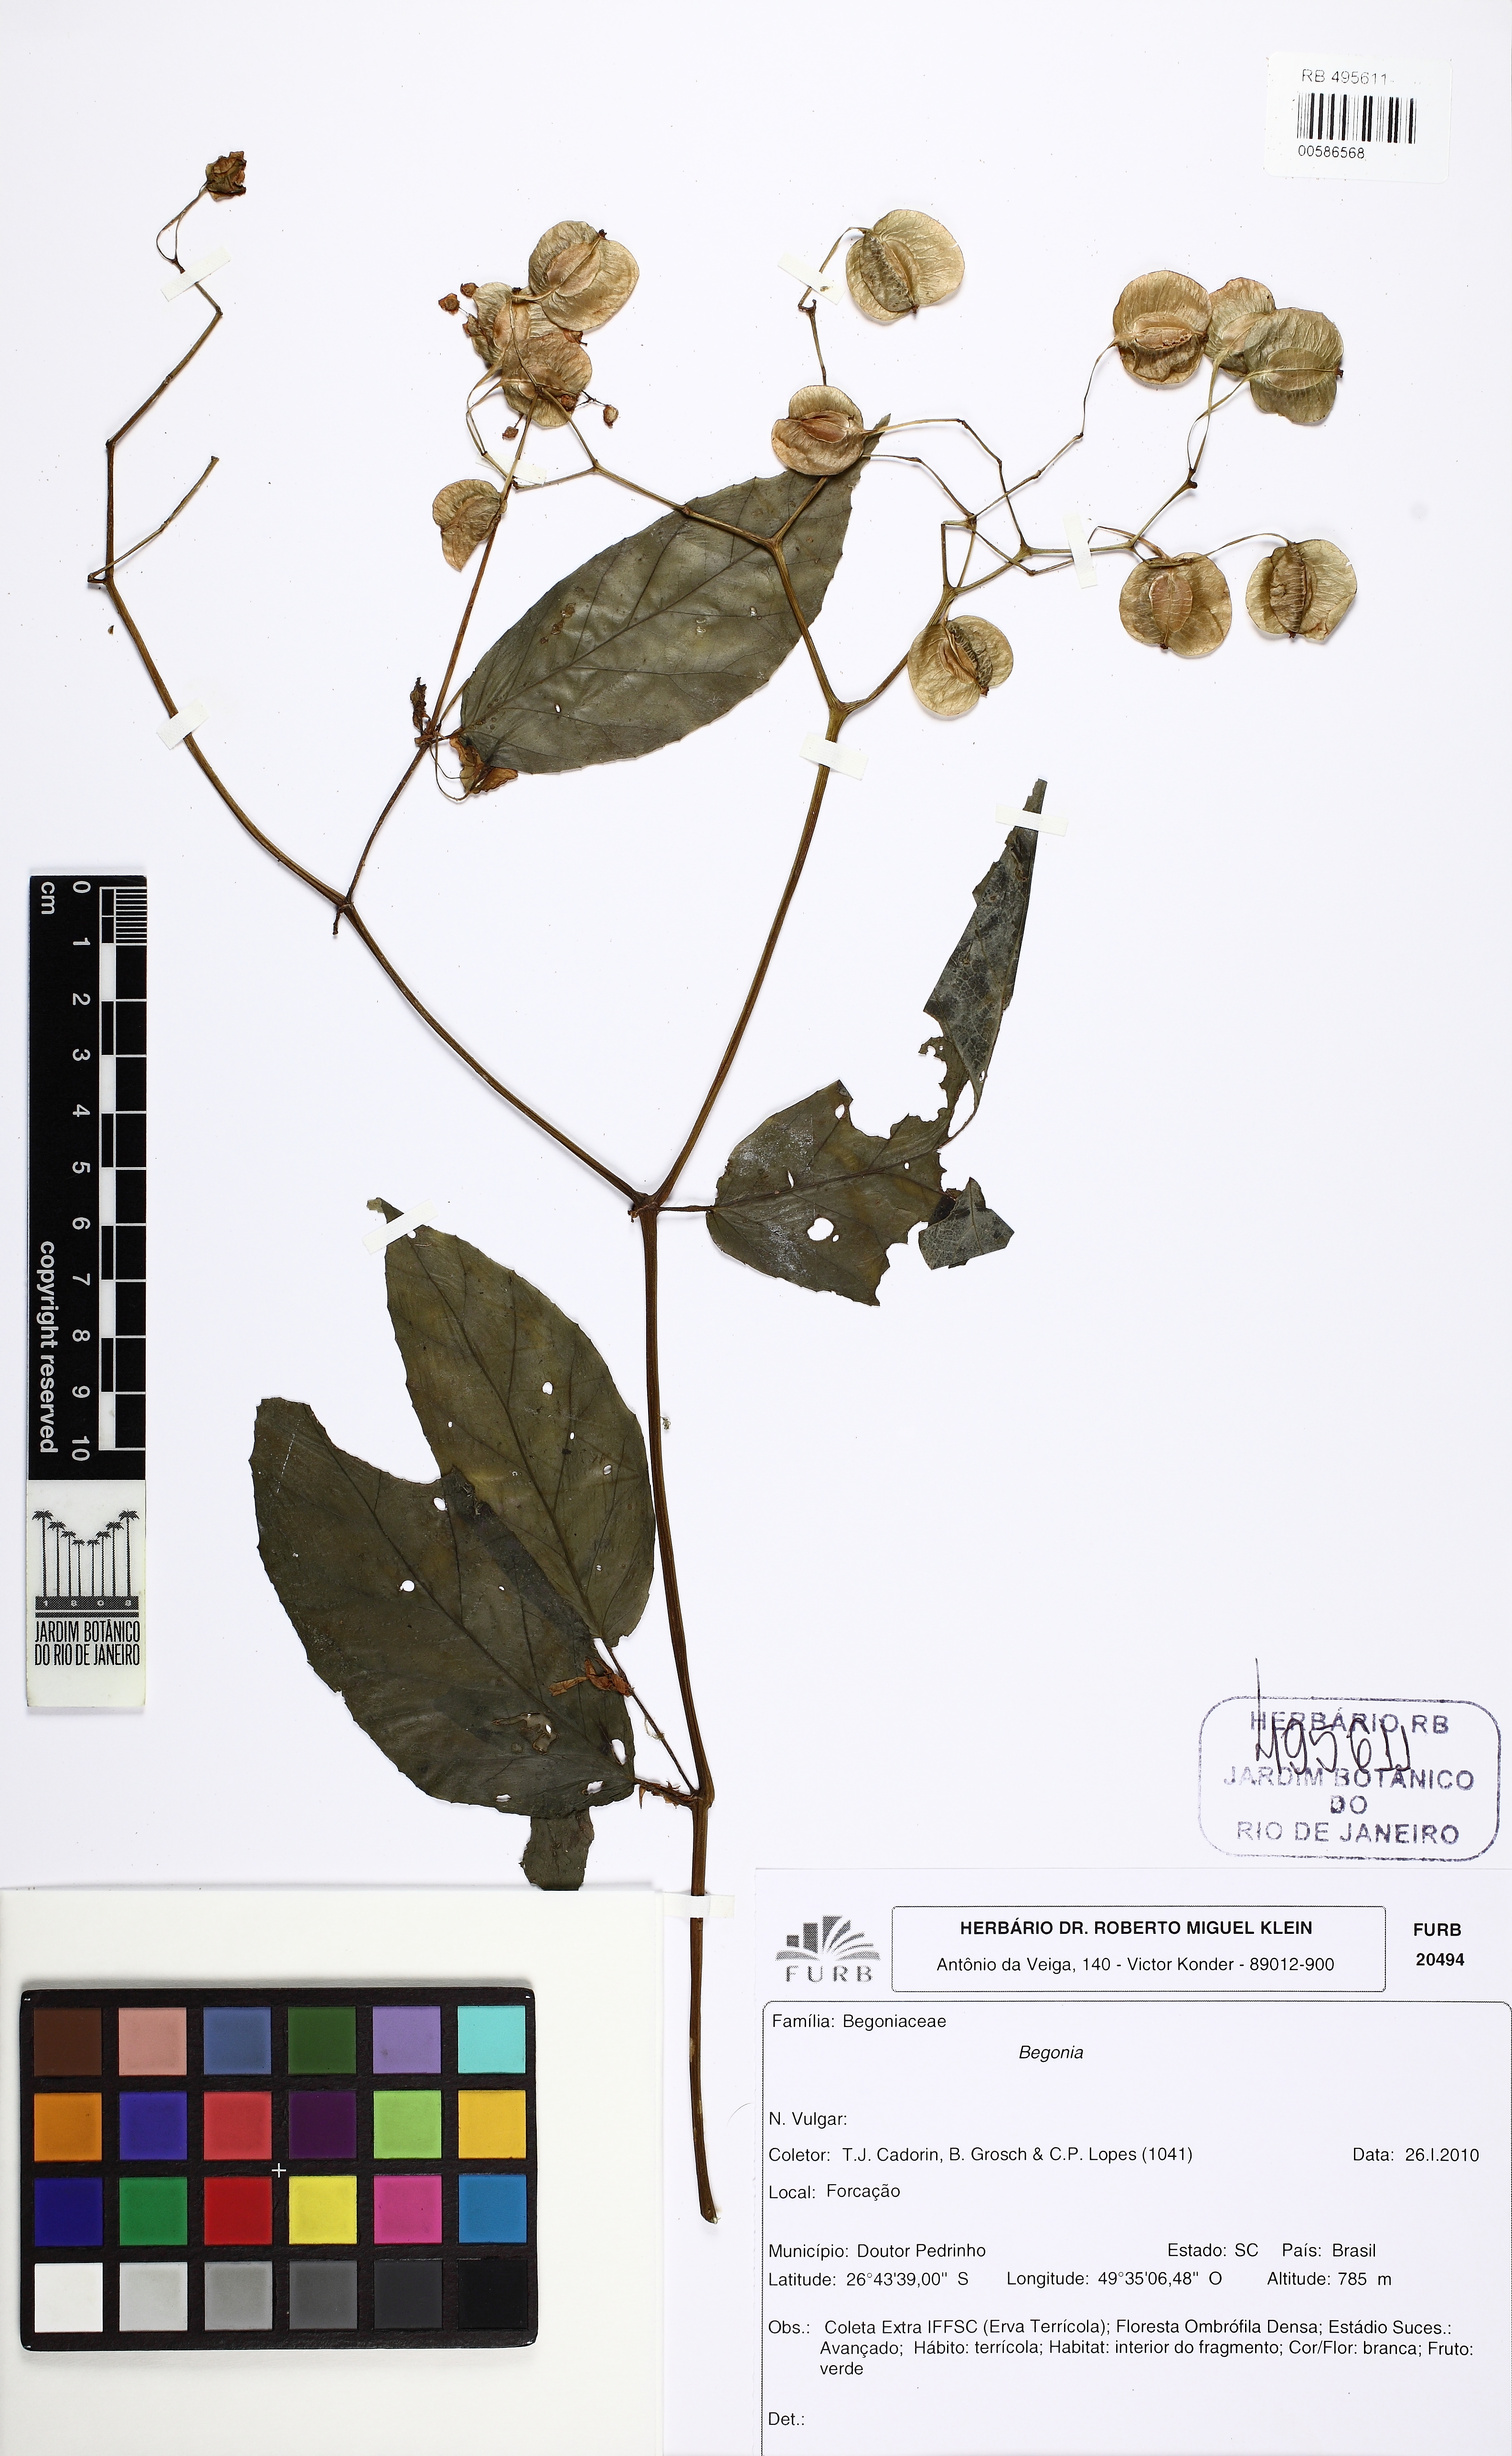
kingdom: Plantae
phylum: Tracheophyta
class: Magnoliopsida
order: Cucurbitales
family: Begoniaceae
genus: Begonia
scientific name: Begonia fuscocaulis
